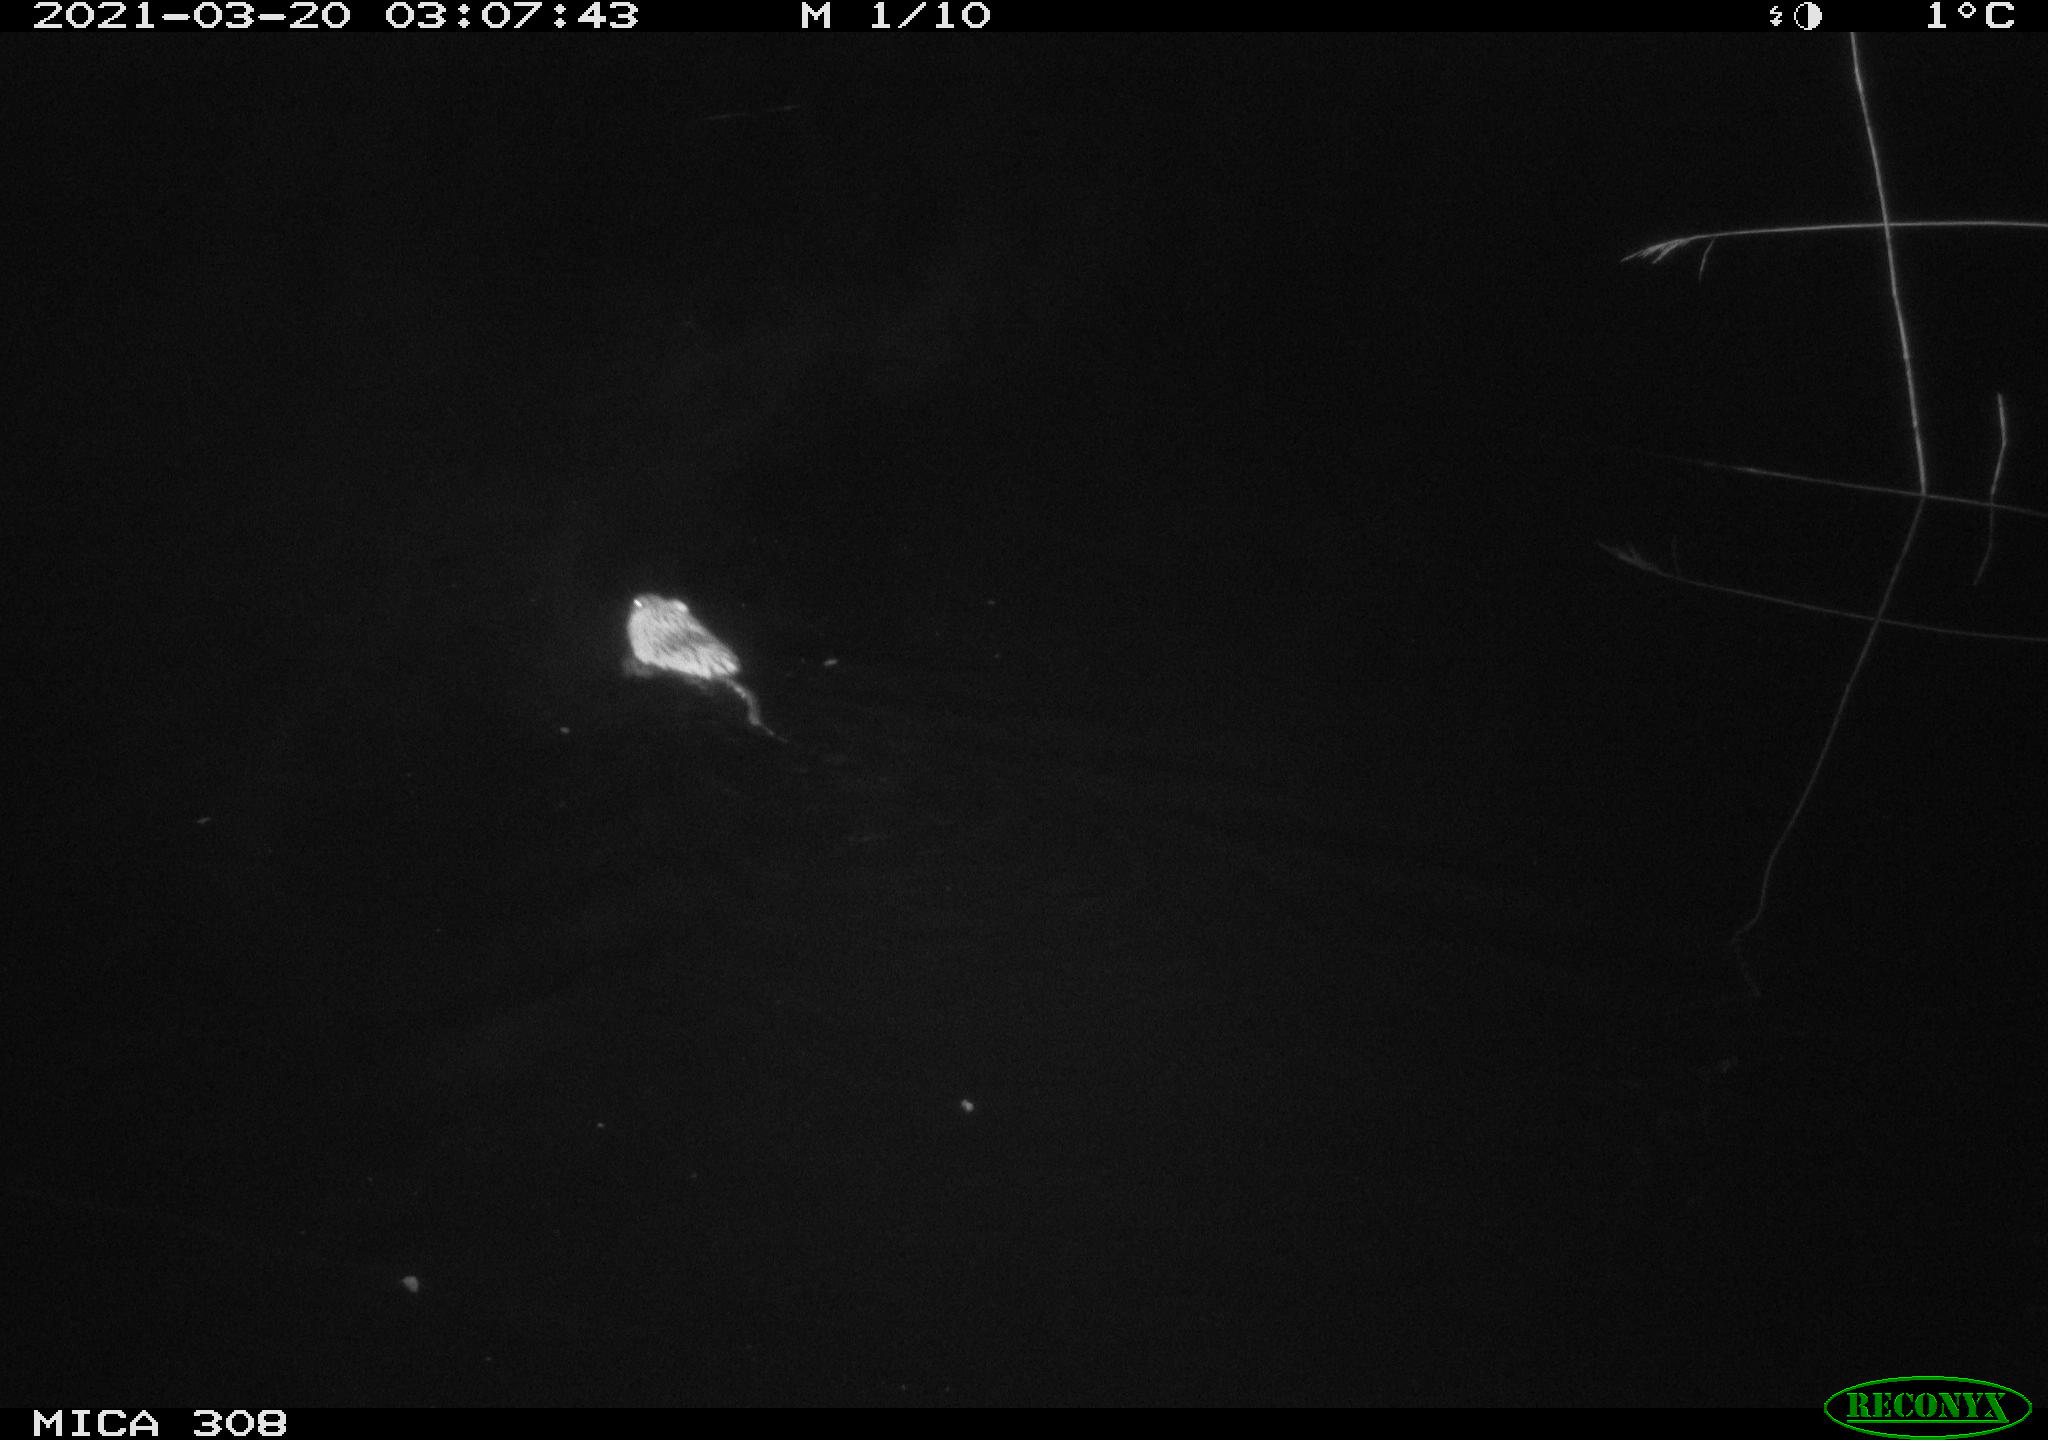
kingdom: Animalia
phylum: Chordata
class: Mammalia
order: Rodentia
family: Cricetidae
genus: Ondatra
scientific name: Ondatra zibethicus
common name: Muskrat
